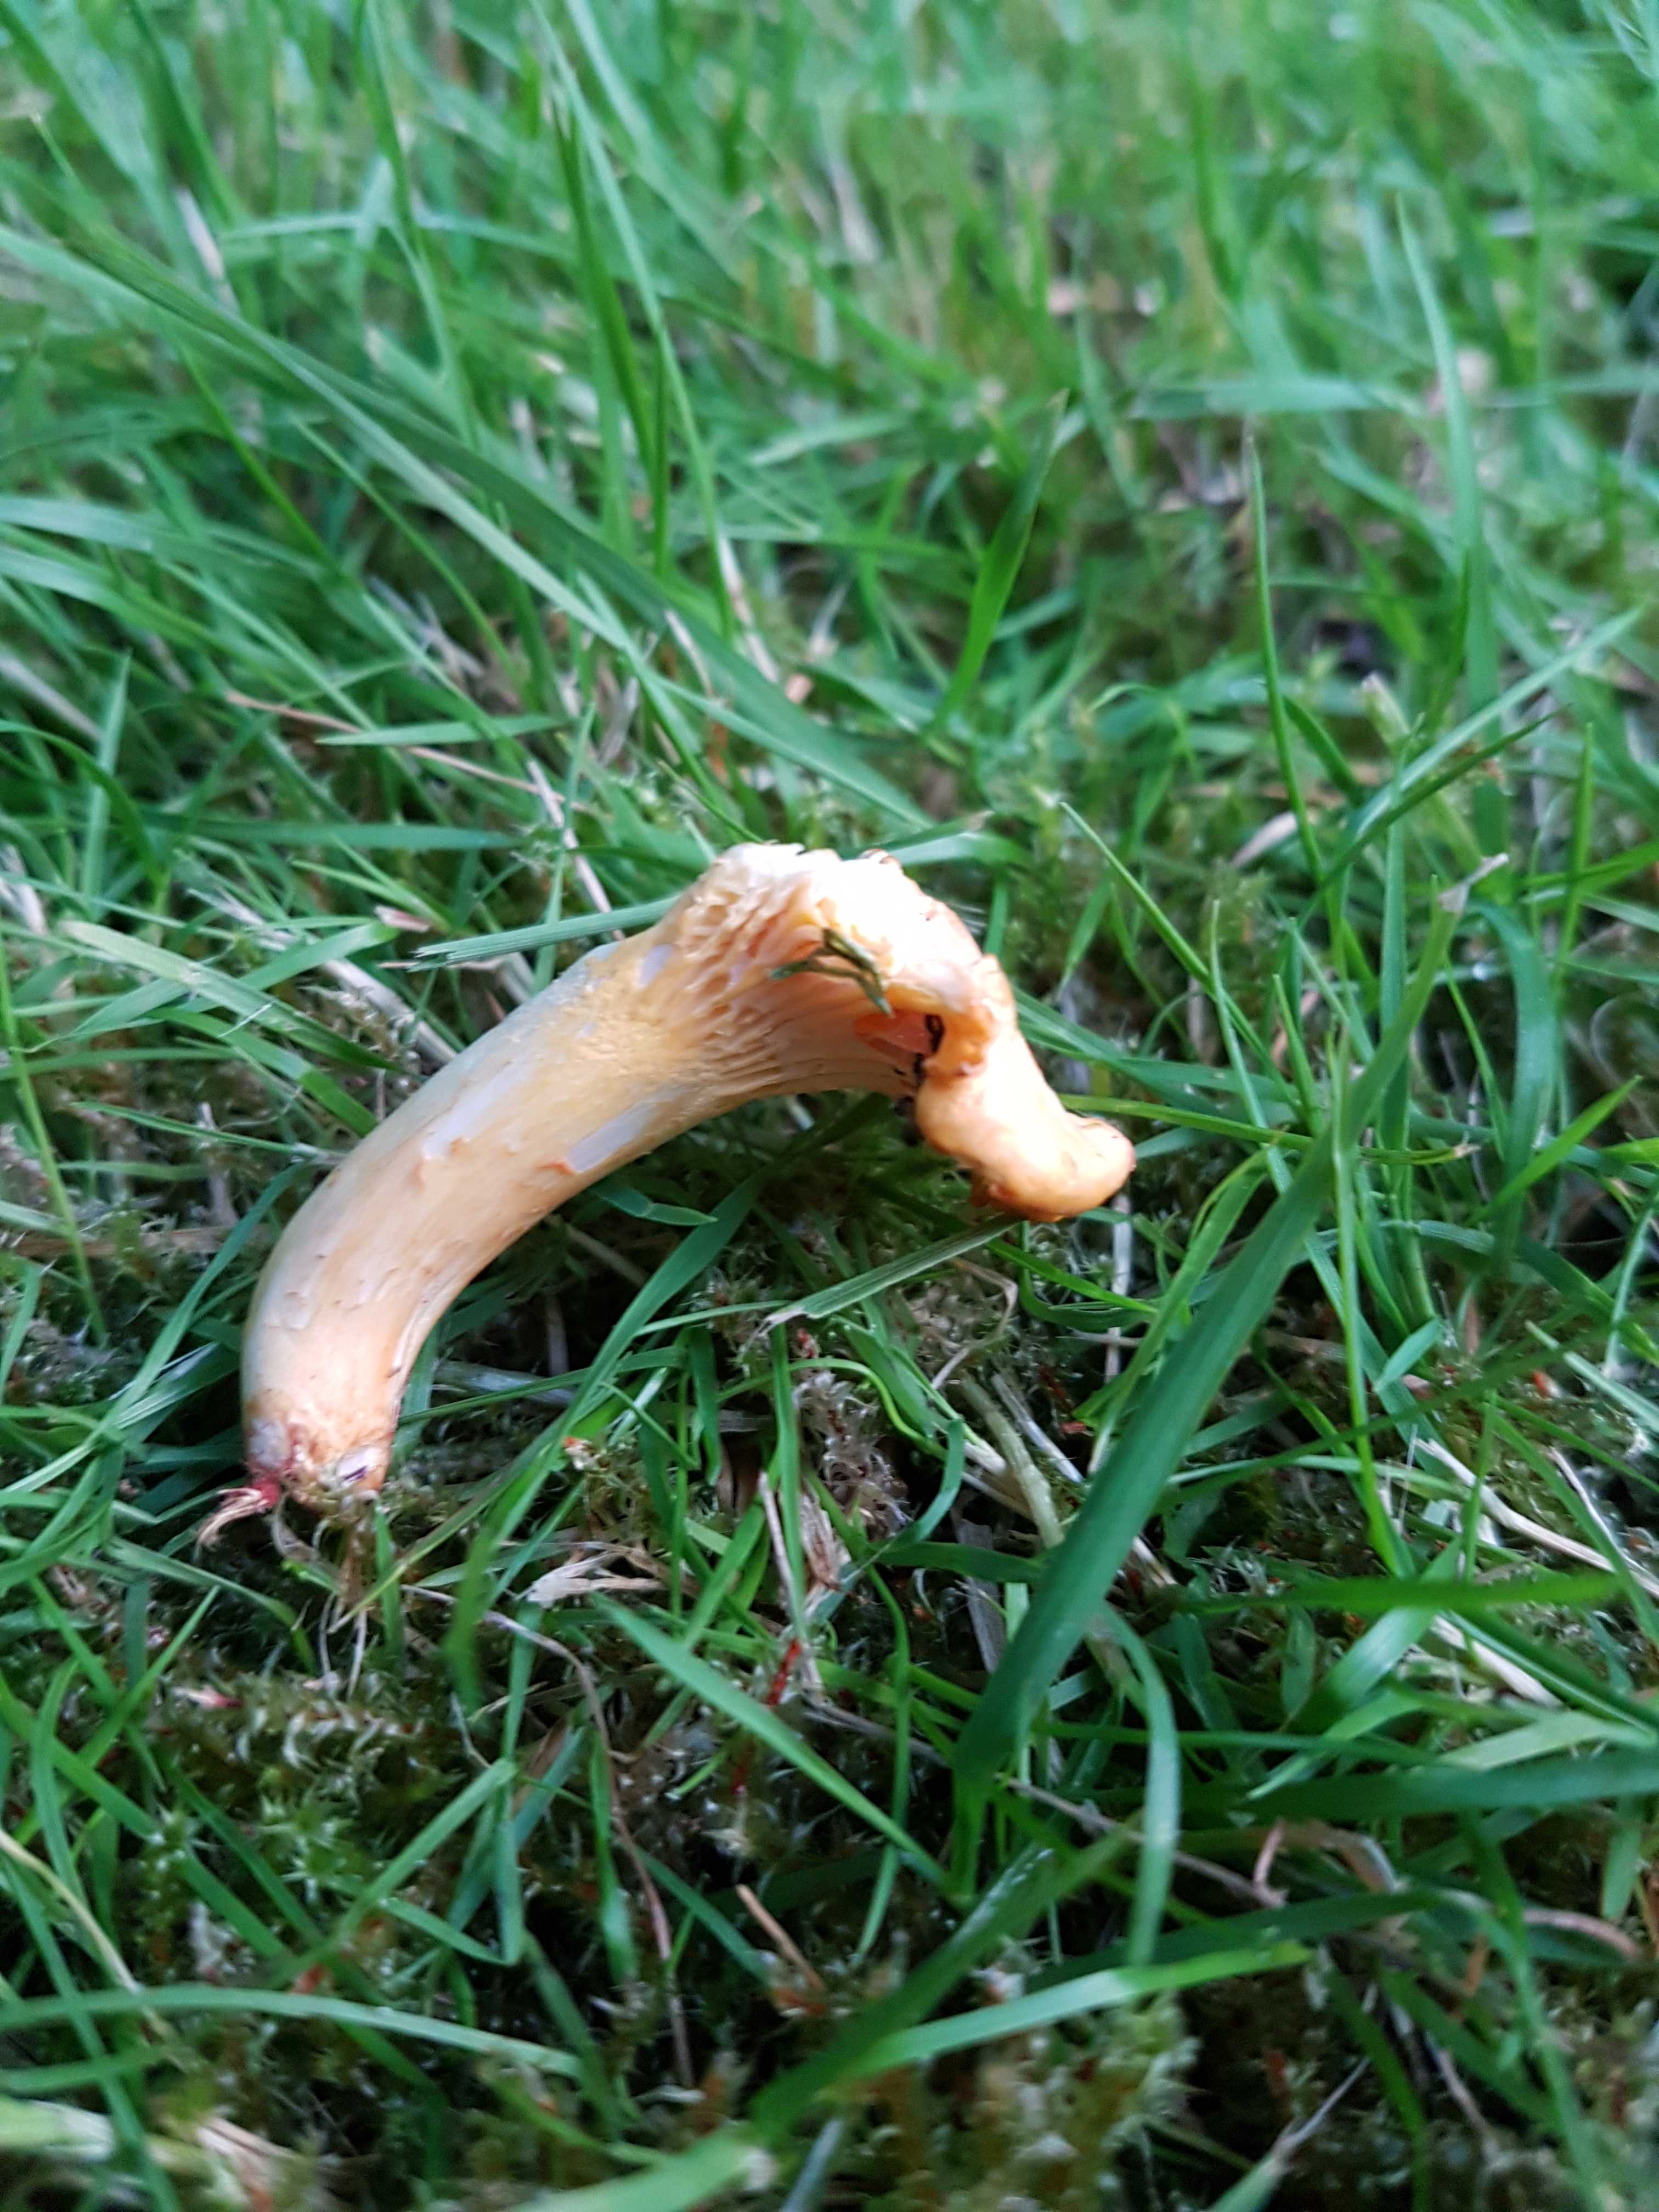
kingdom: Fungi
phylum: Basidiomycota
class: Agaricomycetes
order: Cantharellales
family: Hydnaceae
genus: Cantharellus
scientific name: Cantharellus cibarius
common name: almindelig kantarel
